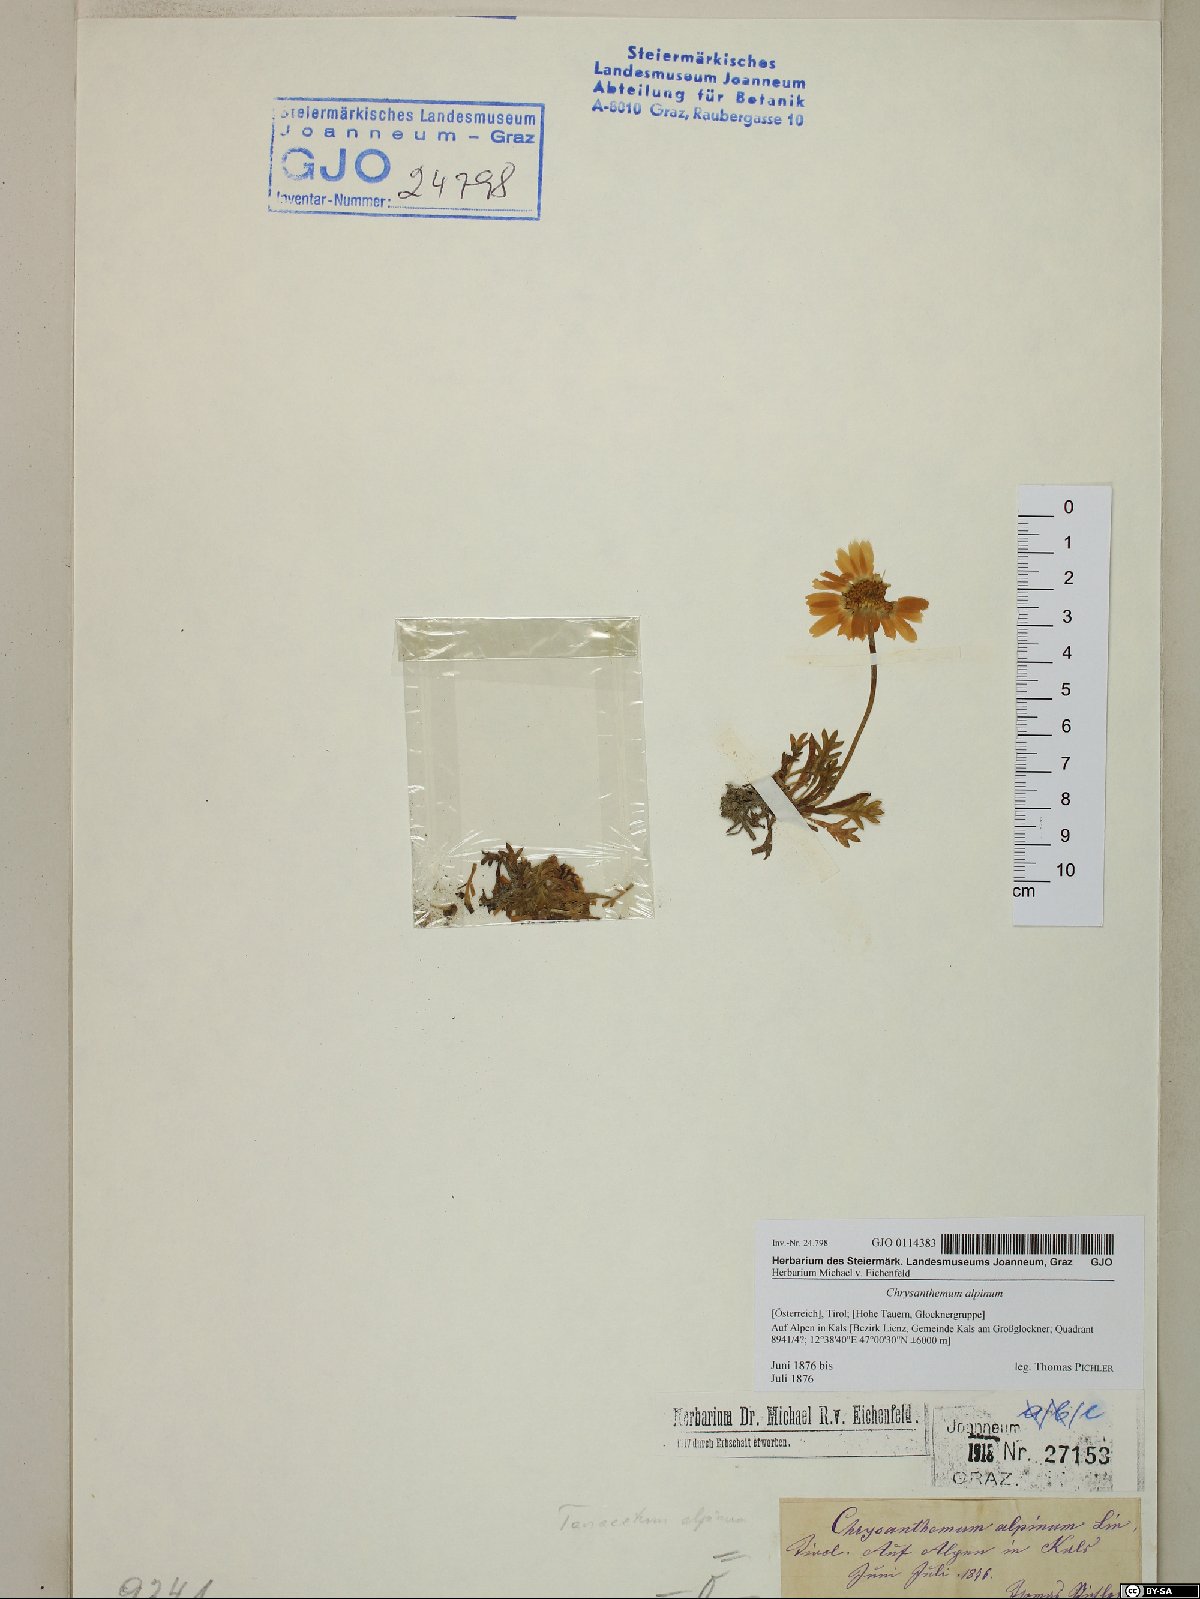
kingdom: Plantae
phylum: Tracheophyta
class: Magnoliopsida
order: Asterales
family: Asteraceae
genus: Leucanthemopsis
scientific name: Leucanthemopsis alpina
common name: Alpine moon daisy
